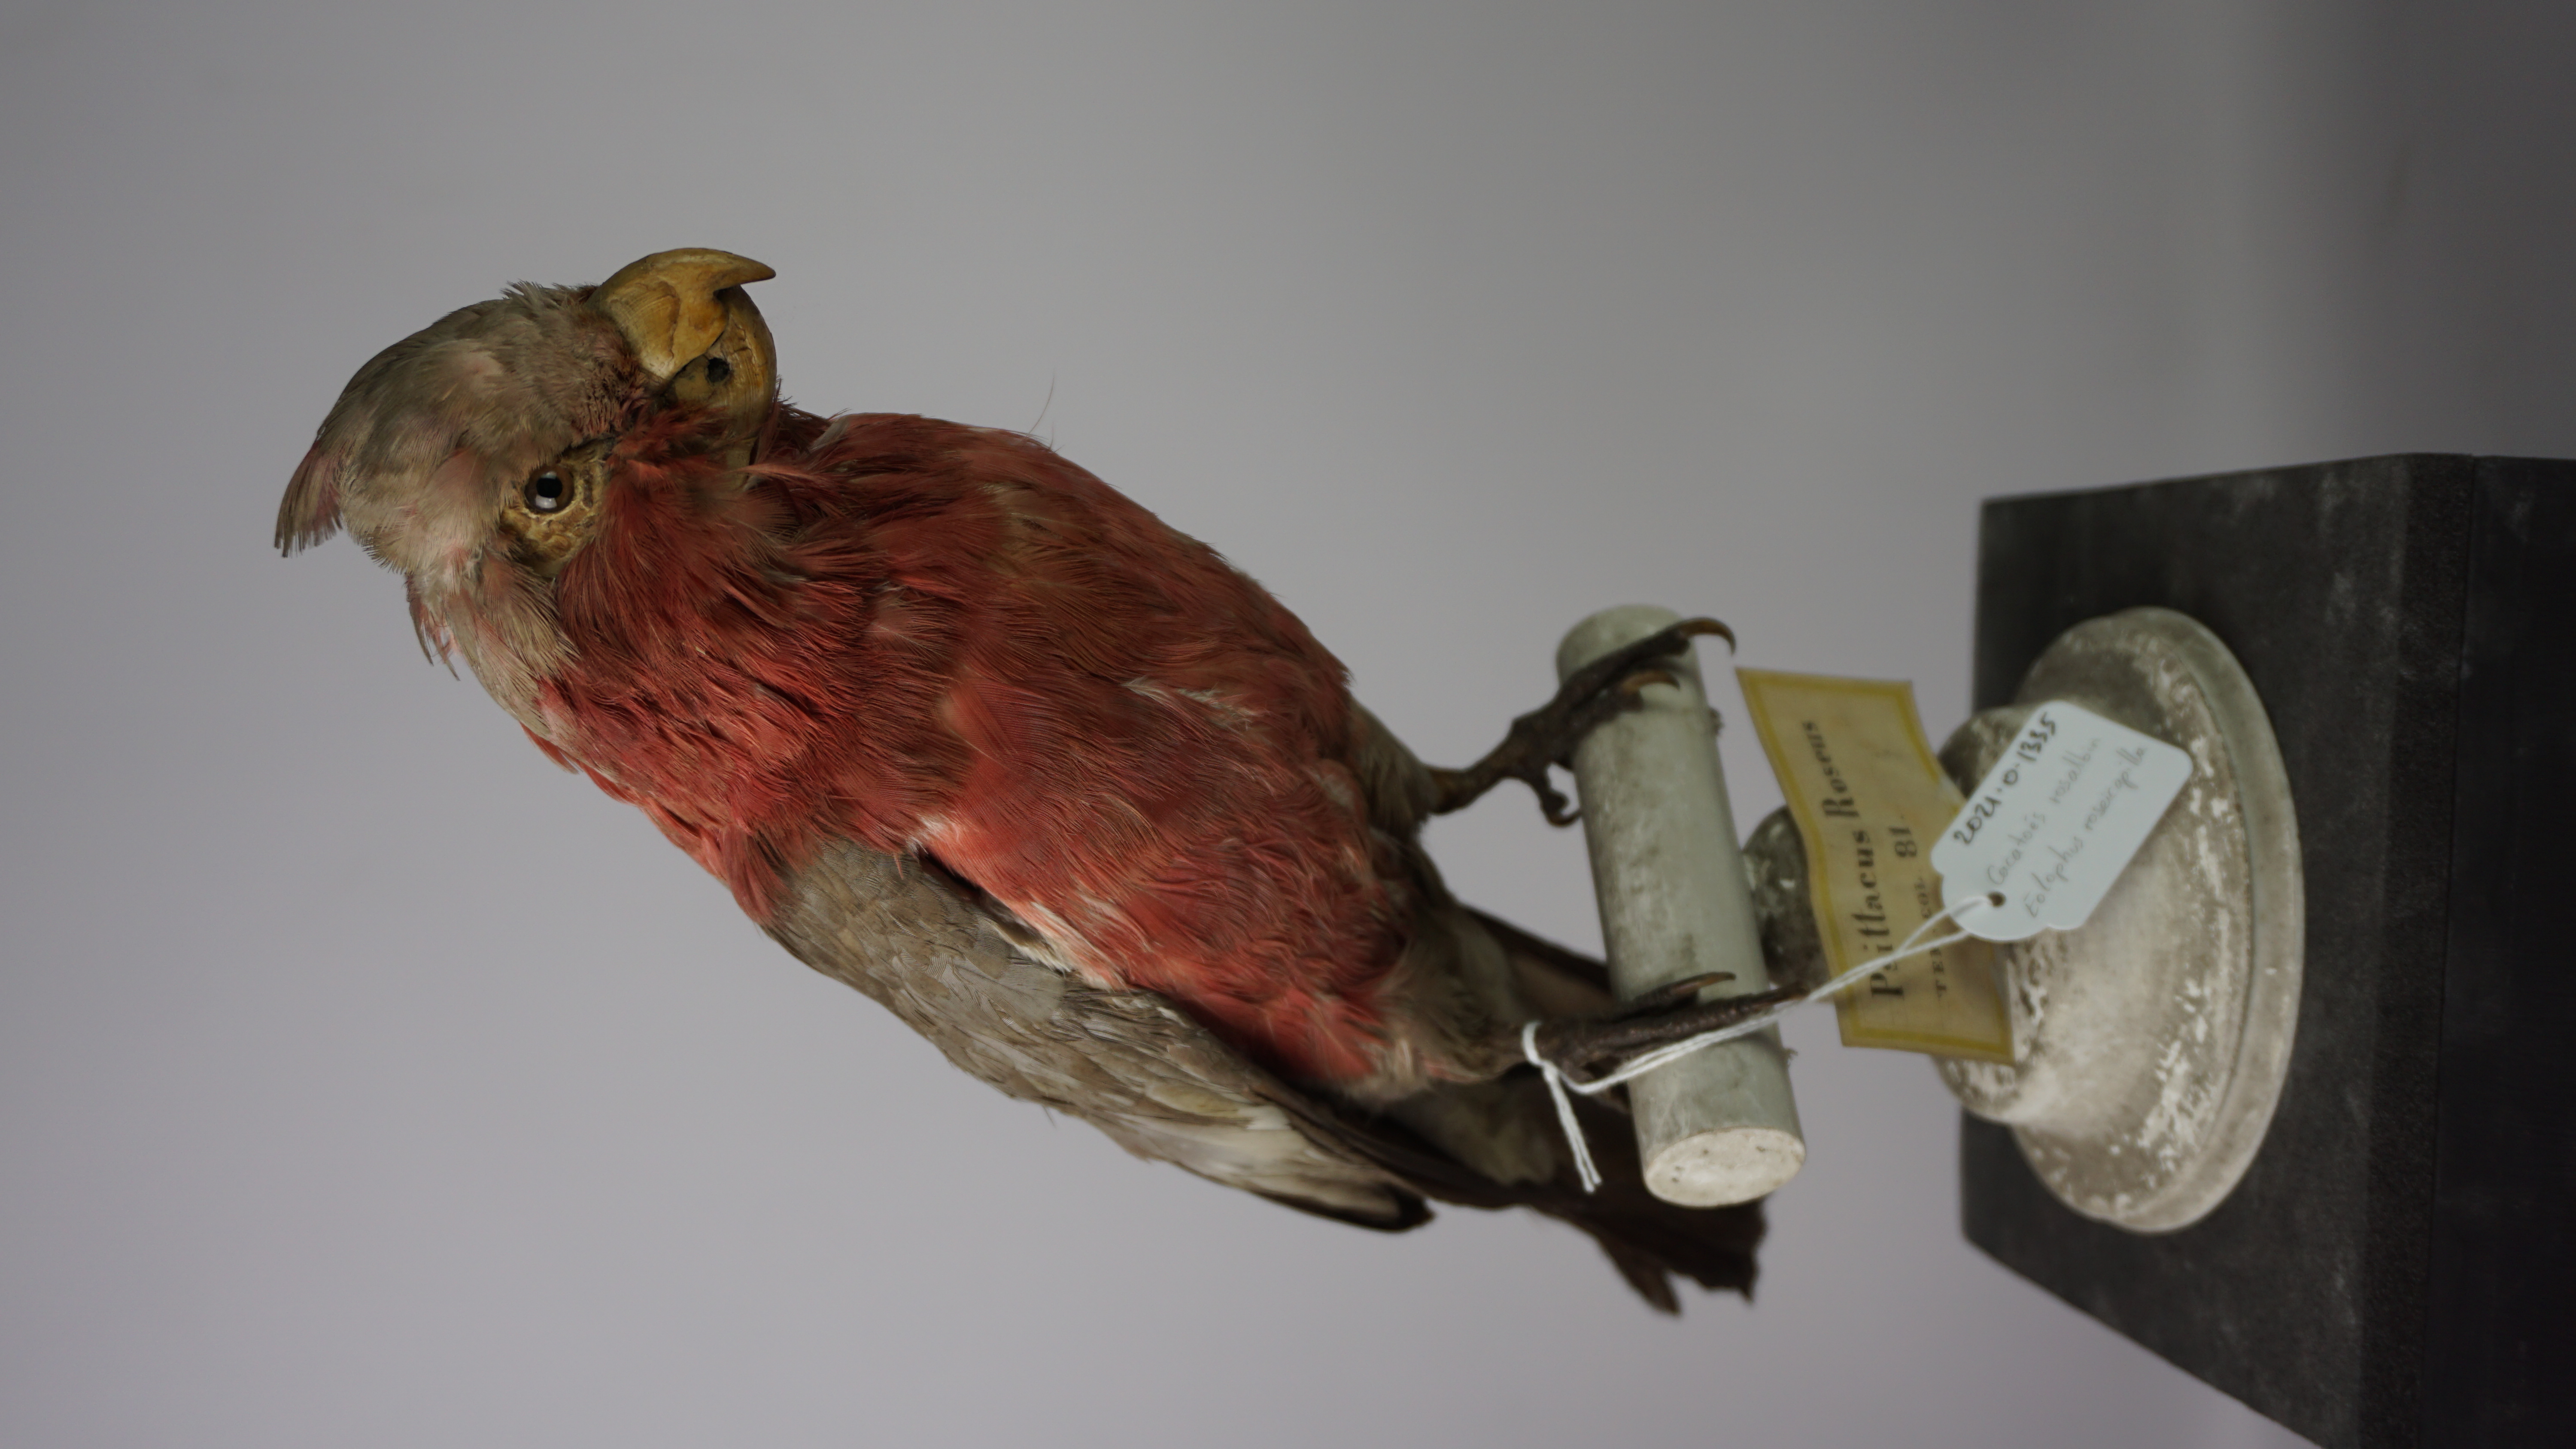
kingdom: Animalia
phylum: Chordata
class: Aves
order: Psittaciformes
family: Psittacidae
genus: Eolophus
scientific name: Eolophus roseicapilla
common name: Galah
